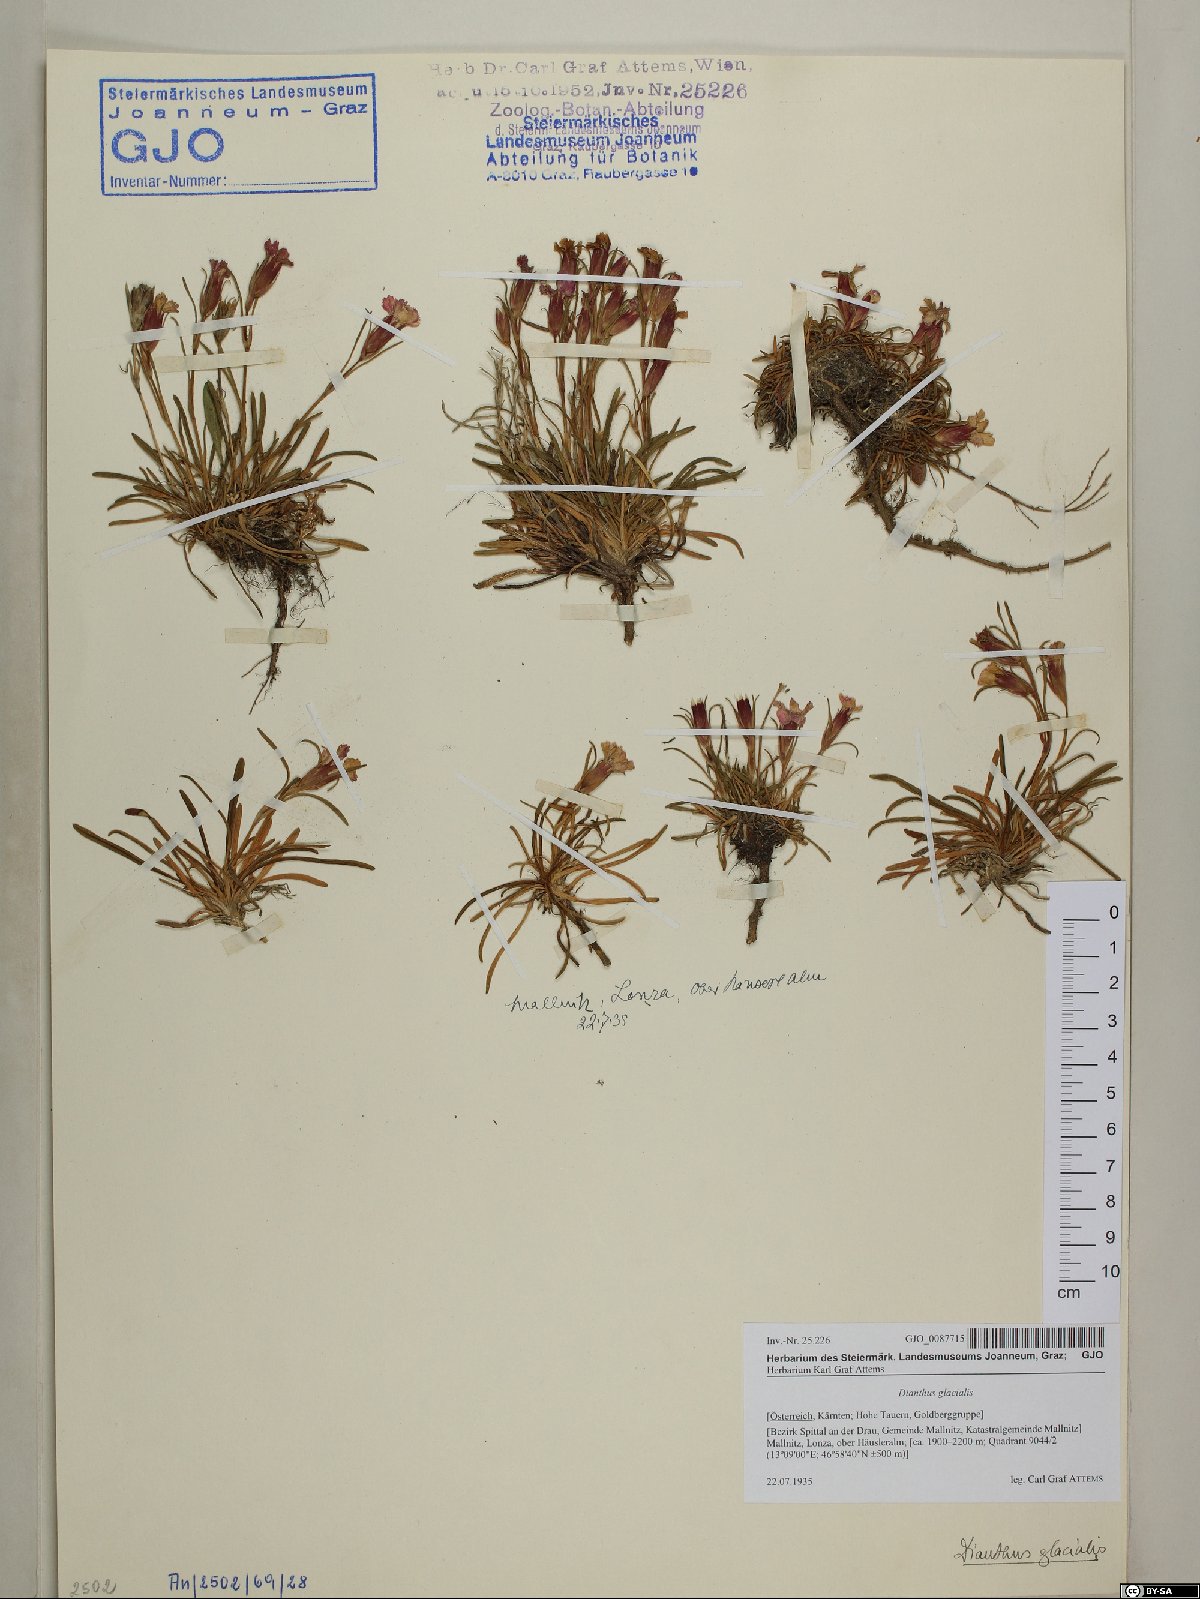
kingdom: Plantae
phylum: Tracheophyta
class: Magnoliopsida
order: Caryophyllales
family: Caryophyllaceae
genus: Dianthus
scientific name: Dianthus glacialis
